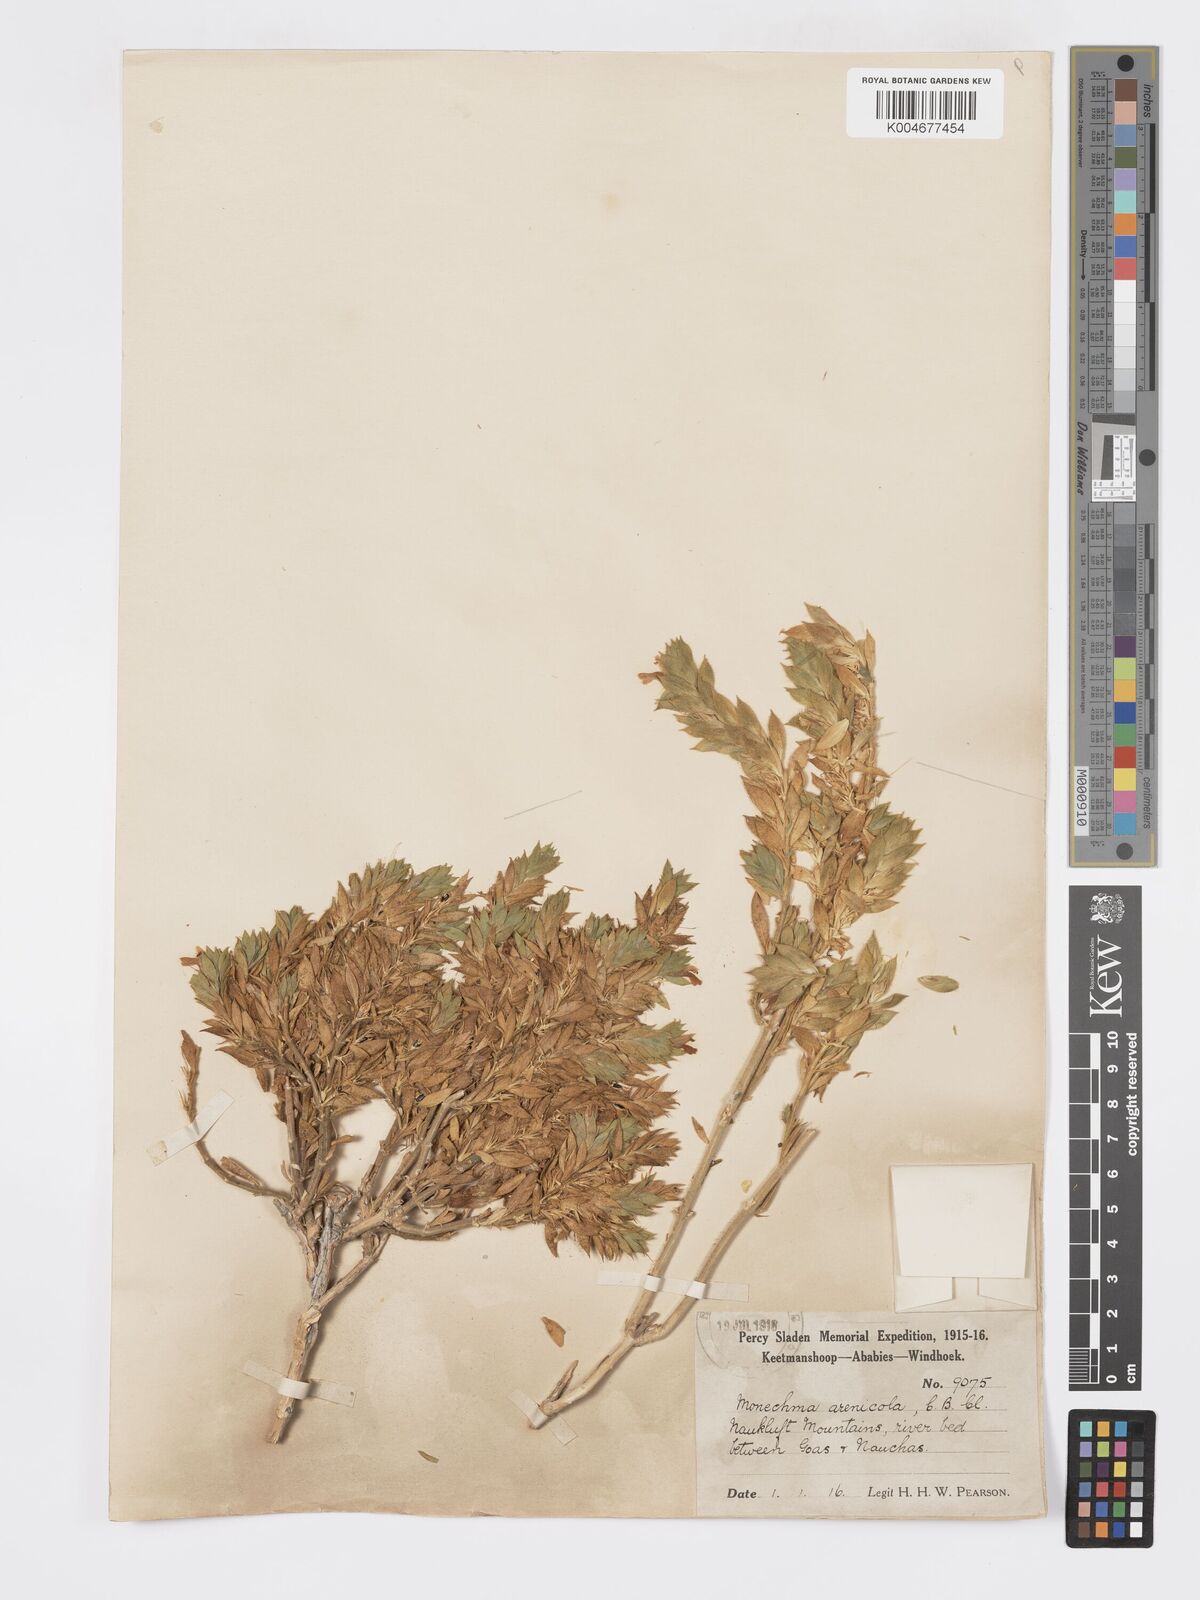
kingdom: Plantae
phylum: Tracheophyta
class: Magnoliopsida
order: Lamiales
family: Acanthaceae
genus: Pogonospermum
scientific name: Pogonospermum
